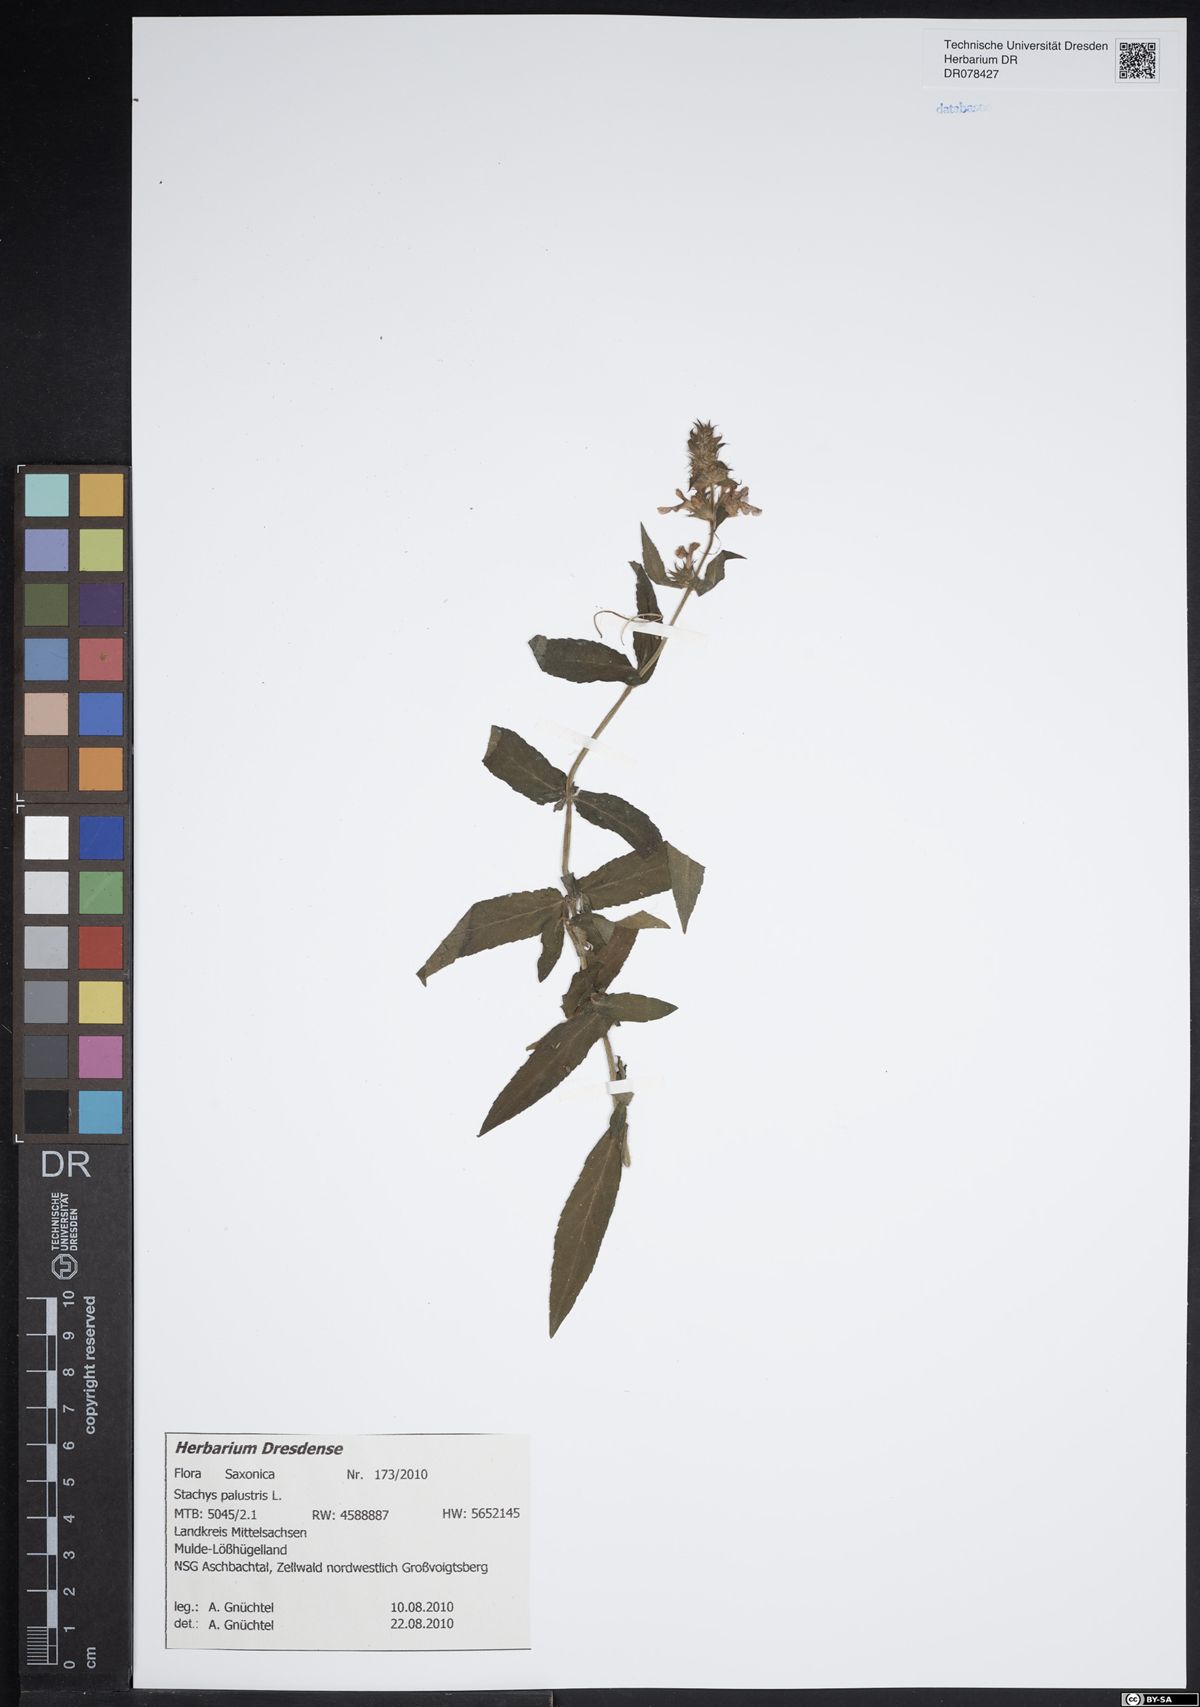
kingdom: Plantae
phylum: Tracheophyta
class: Magnoliopsida
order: Lamiales
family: Lamiaceae
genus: Stachys
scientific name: Stachys palustris
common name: Marsh woundwort
